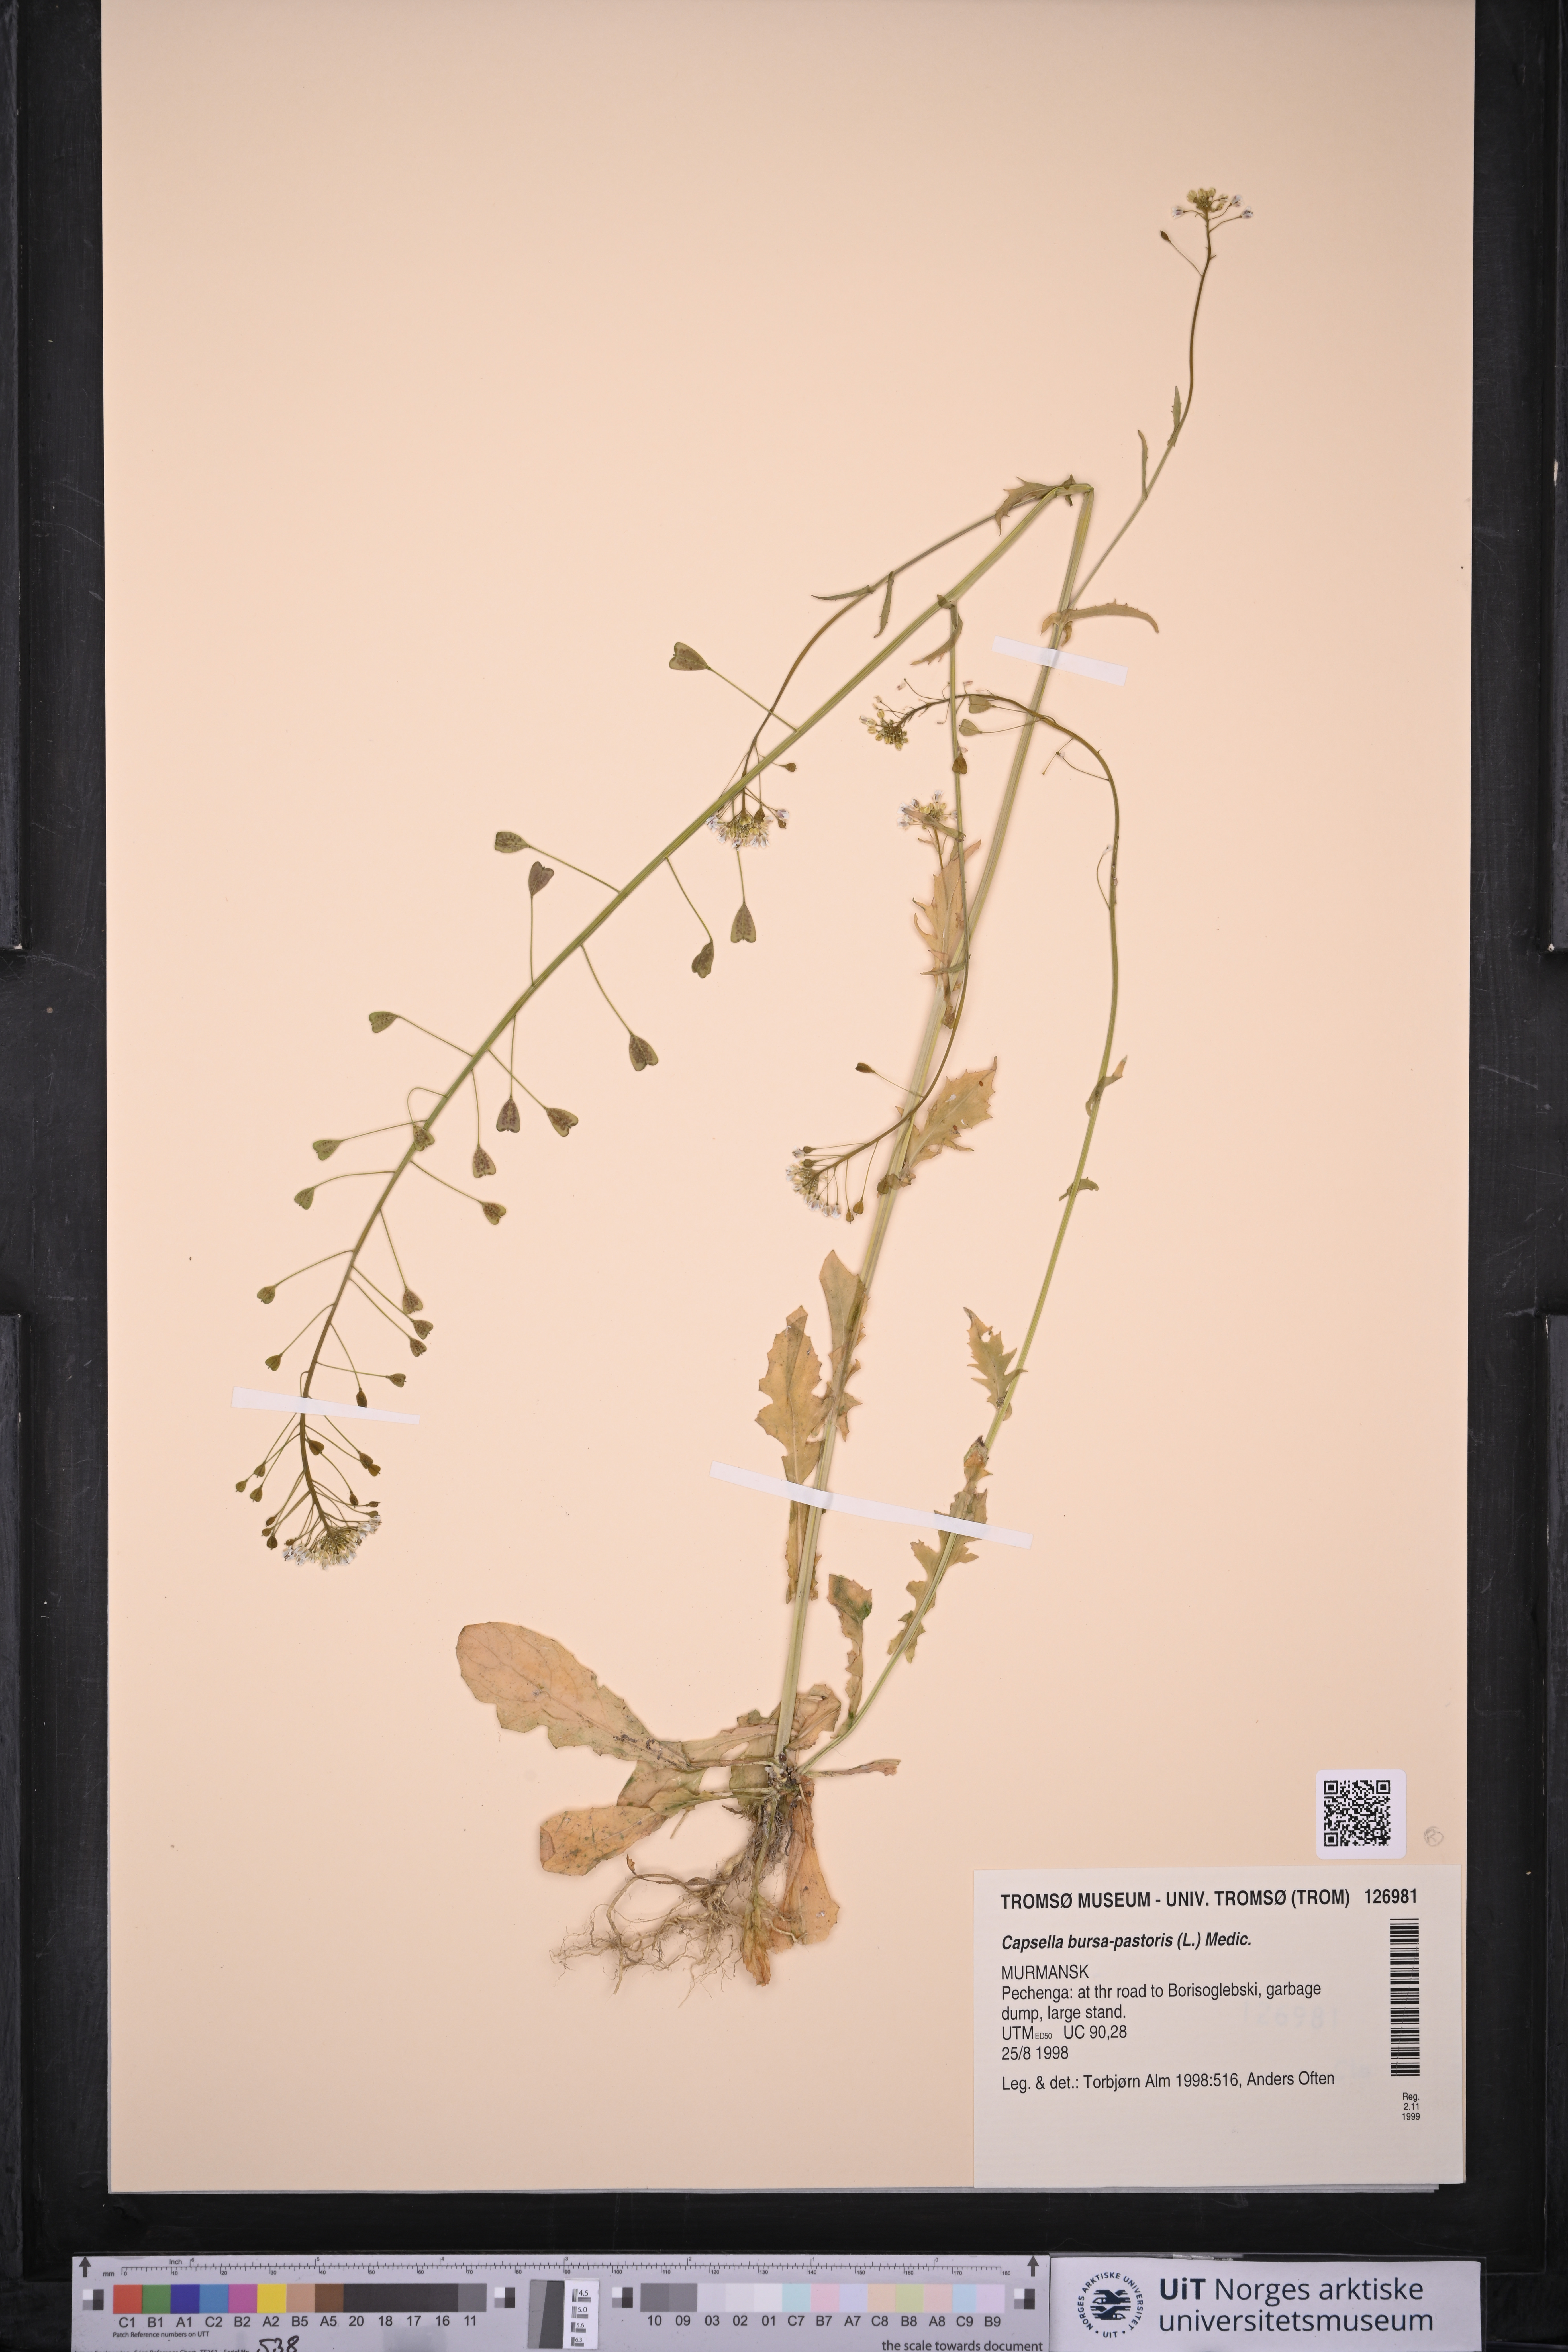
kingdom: Plantae
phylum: Tracheophyta
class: Magnoliopsida
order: Brassicales
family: Brassicaceae
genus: Capsella
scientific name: Capsella bursa-pastoris
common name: Shepherd's purse
